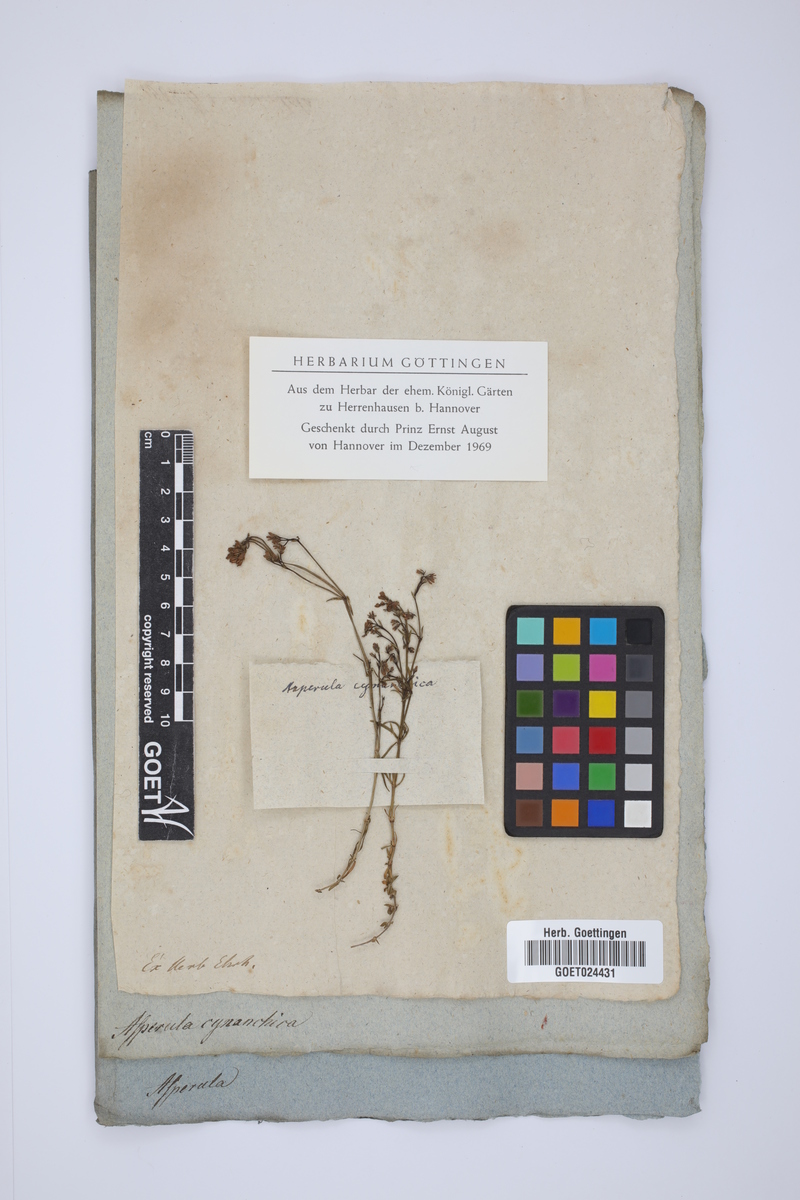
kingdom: Plantae
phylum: Tracheophyta
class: Magnoliopsida
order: Gentianales
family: Rubiaceae
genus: Cynanchica
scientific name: Cynanchica pyrenaica
